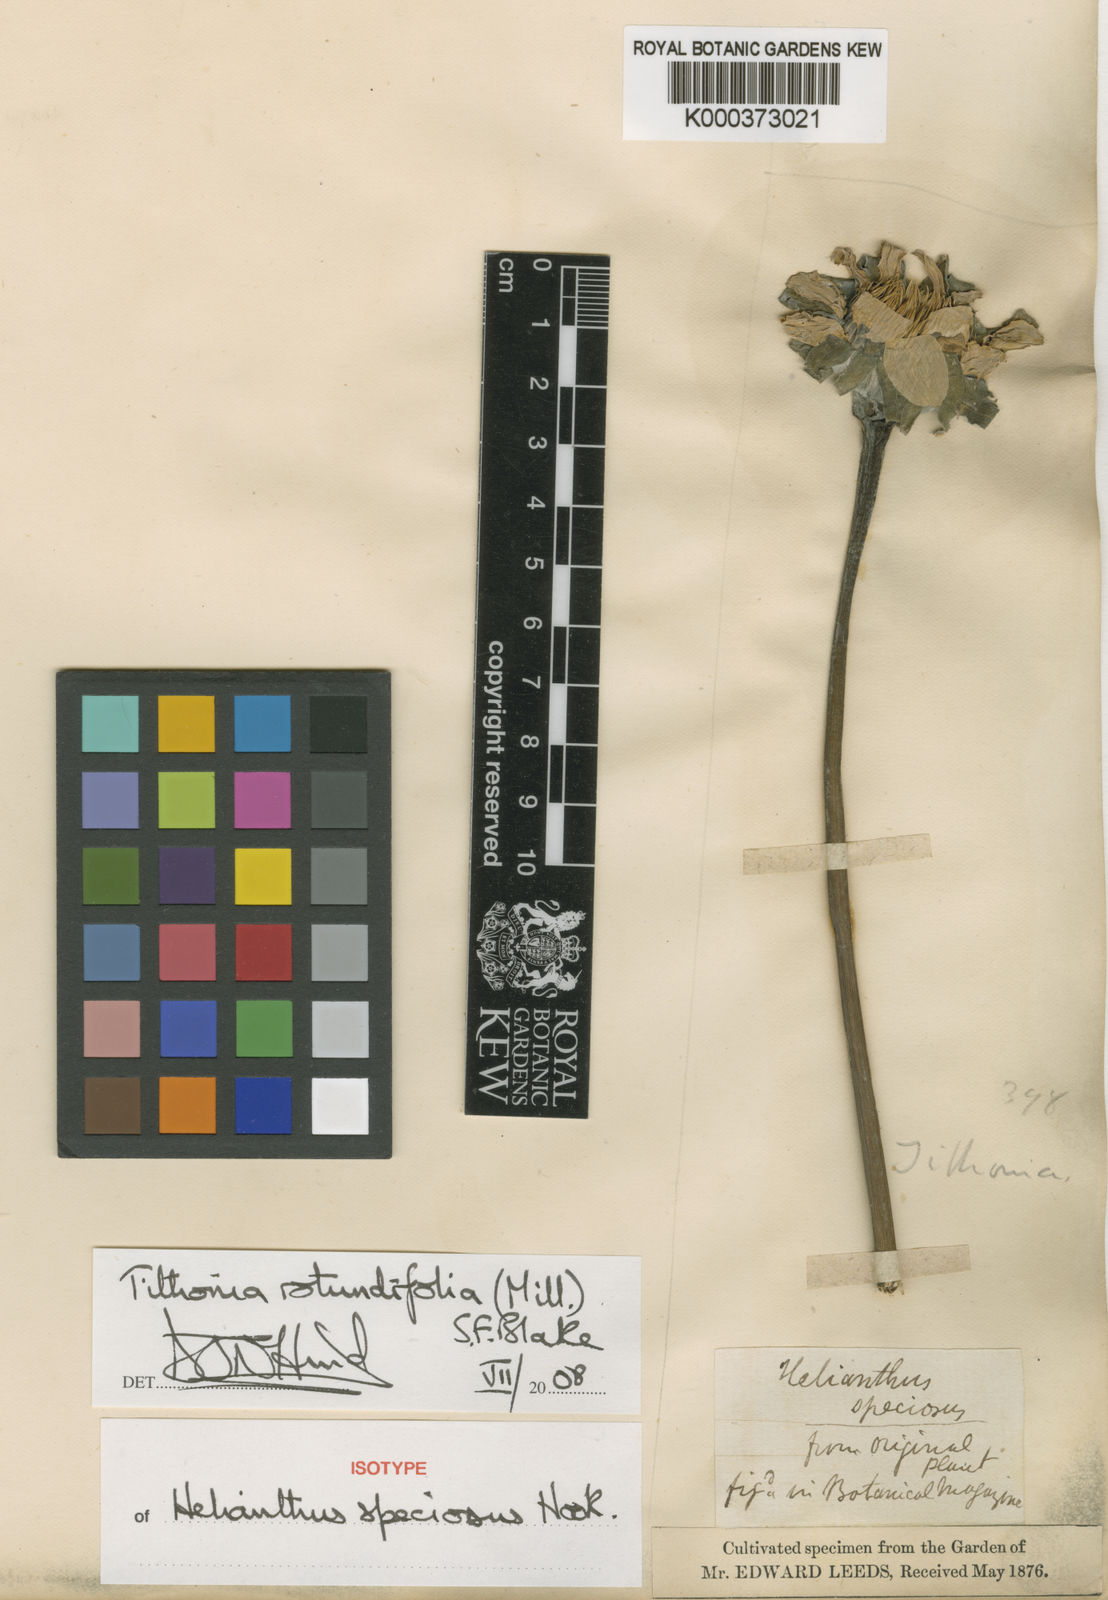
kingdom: Plantae
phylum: Tracheophyta
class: Magnoliopsida
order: Asterales
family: Asteraceae
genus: Tithonia
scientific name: Tithonia rotundifolia
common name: Sunflower
